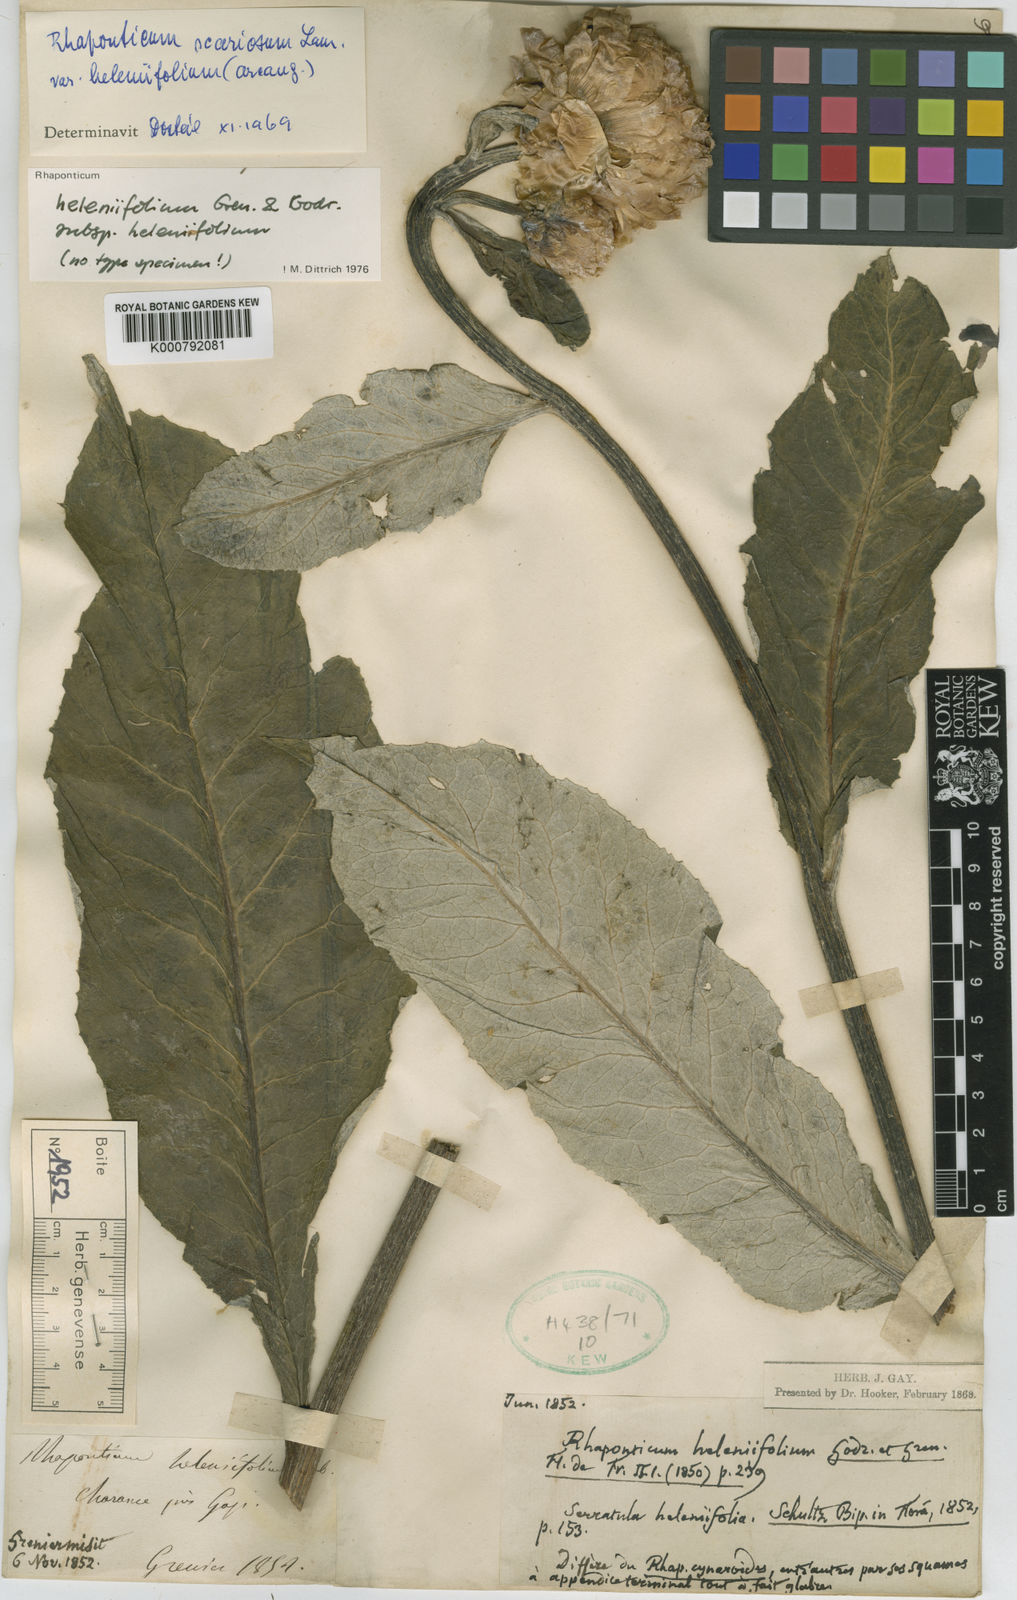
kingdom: Plantae
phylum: Tracheophyta
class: Magnoliopsida
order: Asterales
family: Asteraceae
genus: Leuzea
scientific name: Leuzea
